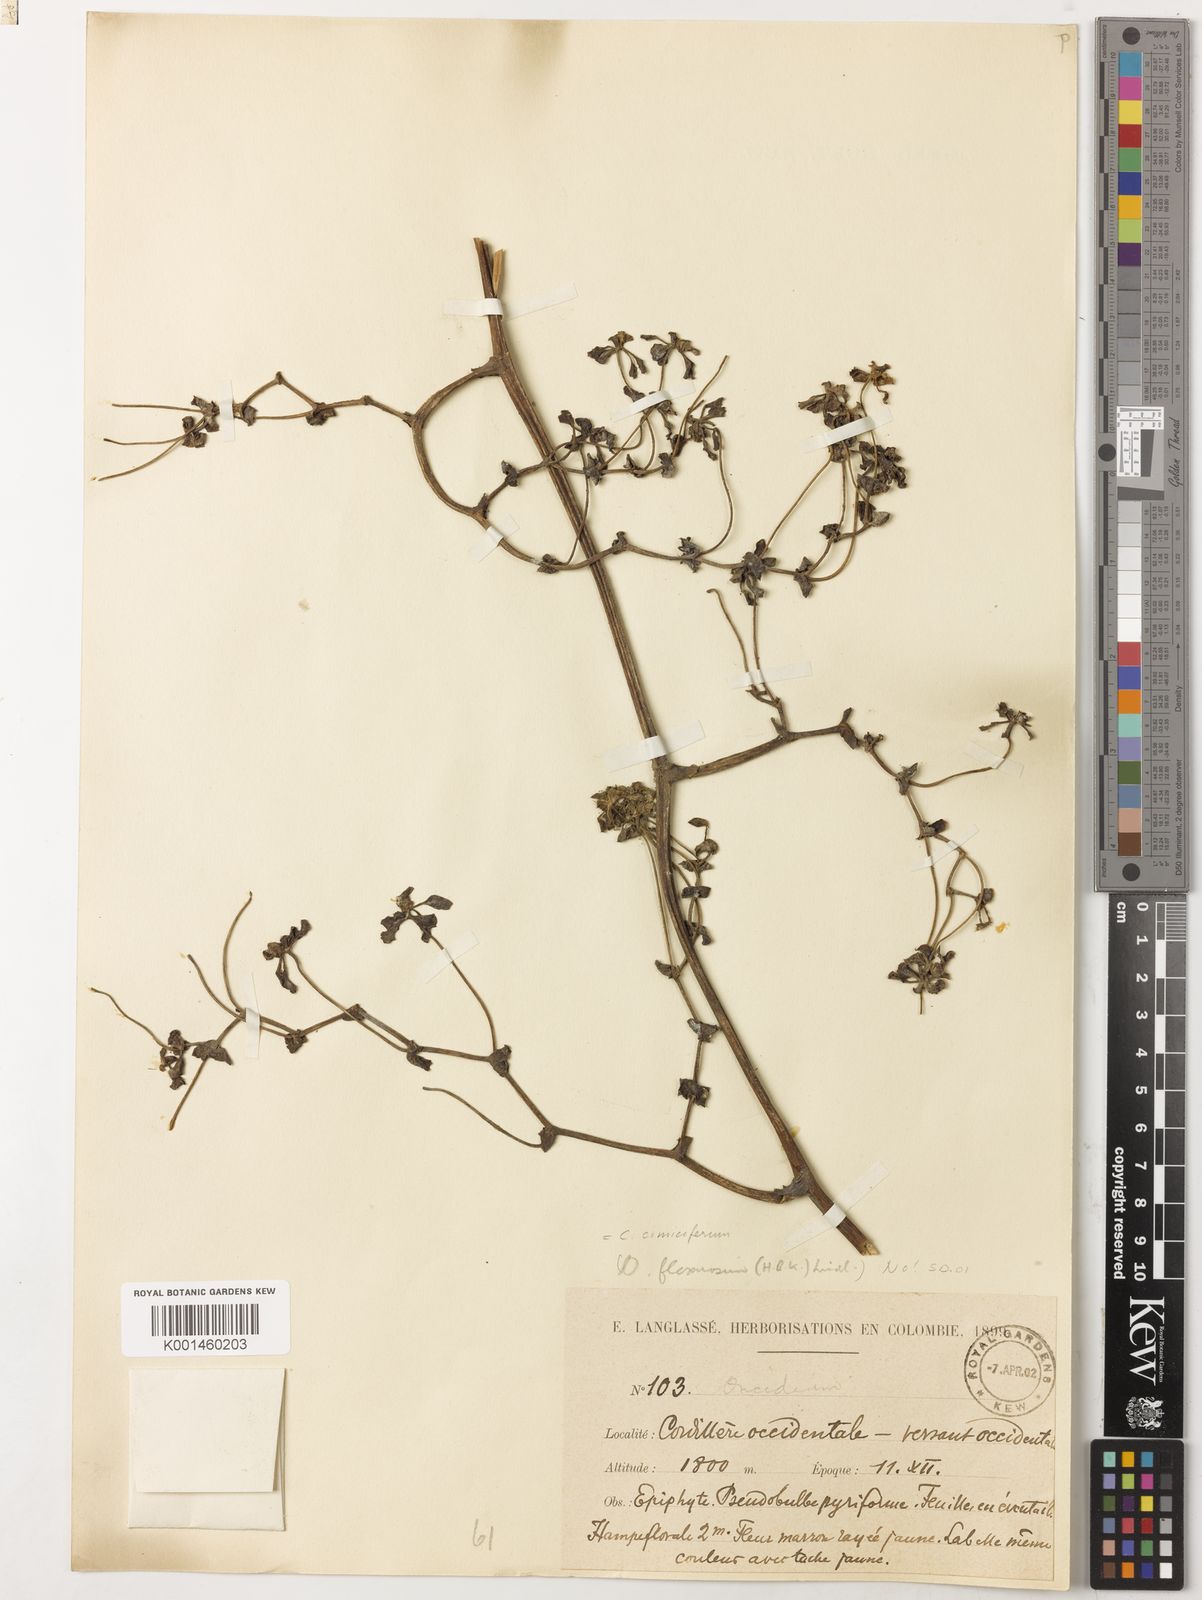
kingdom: Plantae
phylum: Tracheophyta
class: Liliopsida
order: Asparagales
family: Orchidaceae
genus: Cyrtochilum
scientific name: Cyrtochilum
